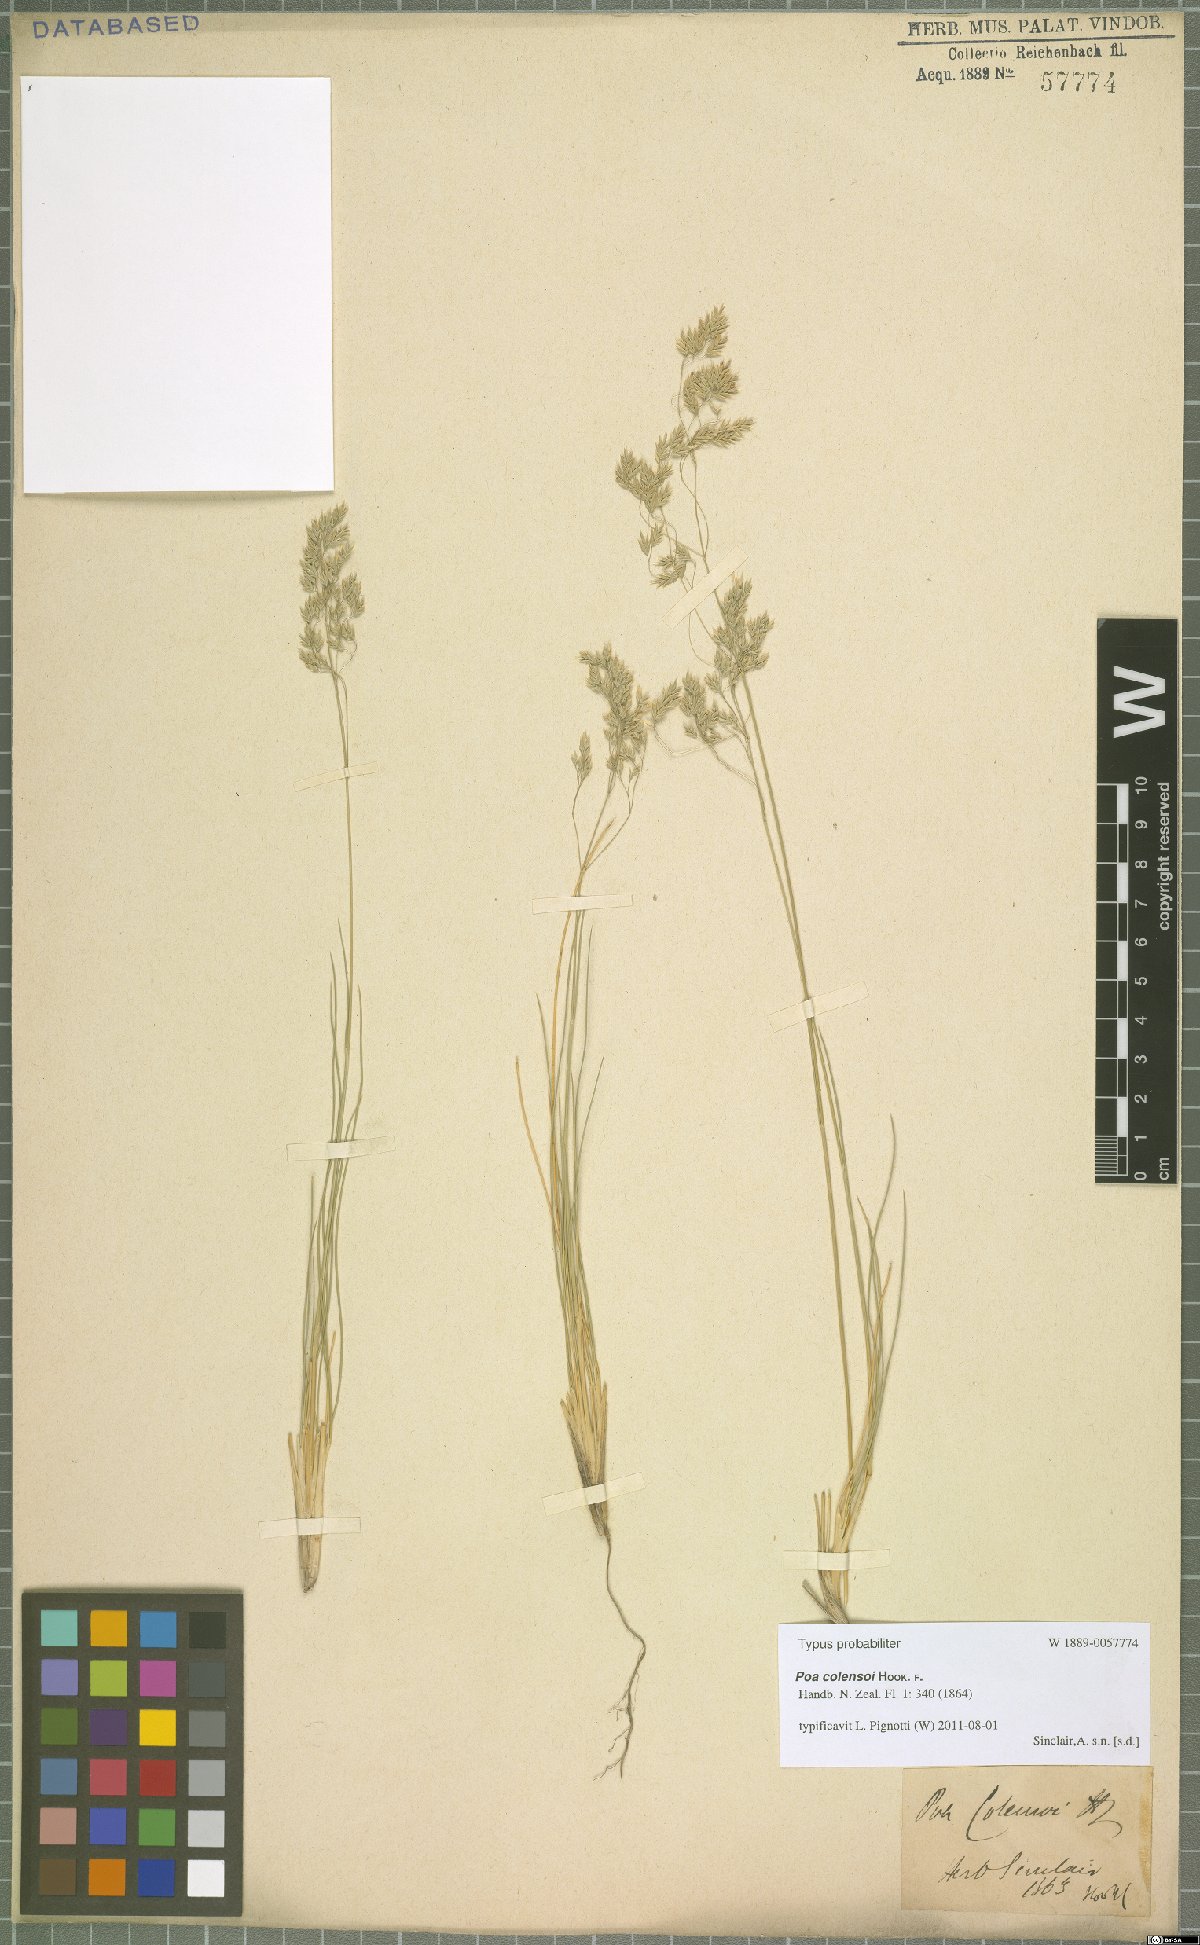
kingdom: Plantae
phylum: Tracheophyta
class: Liliopsida
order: Poales
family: Poaceae
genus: Poa
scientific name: Poa colensoi
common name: Blue tussock
